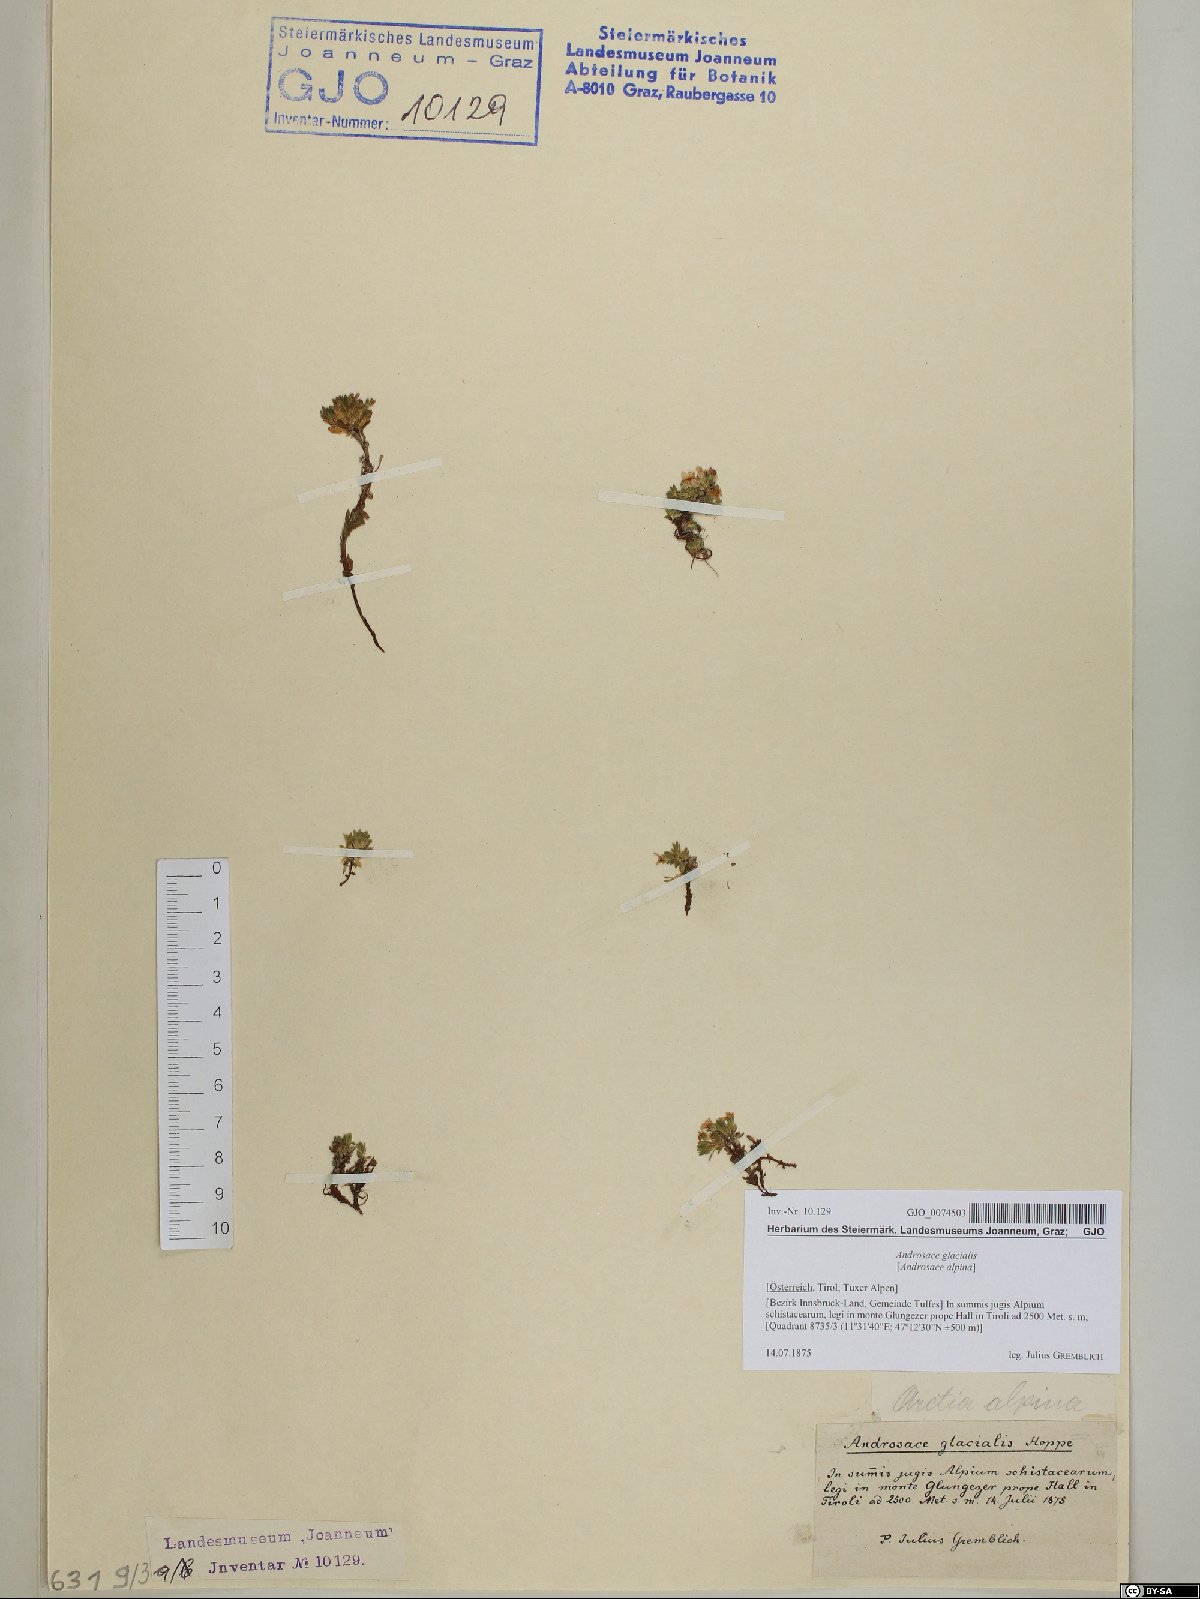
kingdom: Plantae
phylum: Tracheophyta
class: Magnoliopsida
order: Ericales
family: Primulaceae
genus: Androsace
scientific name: Androsace alpina
